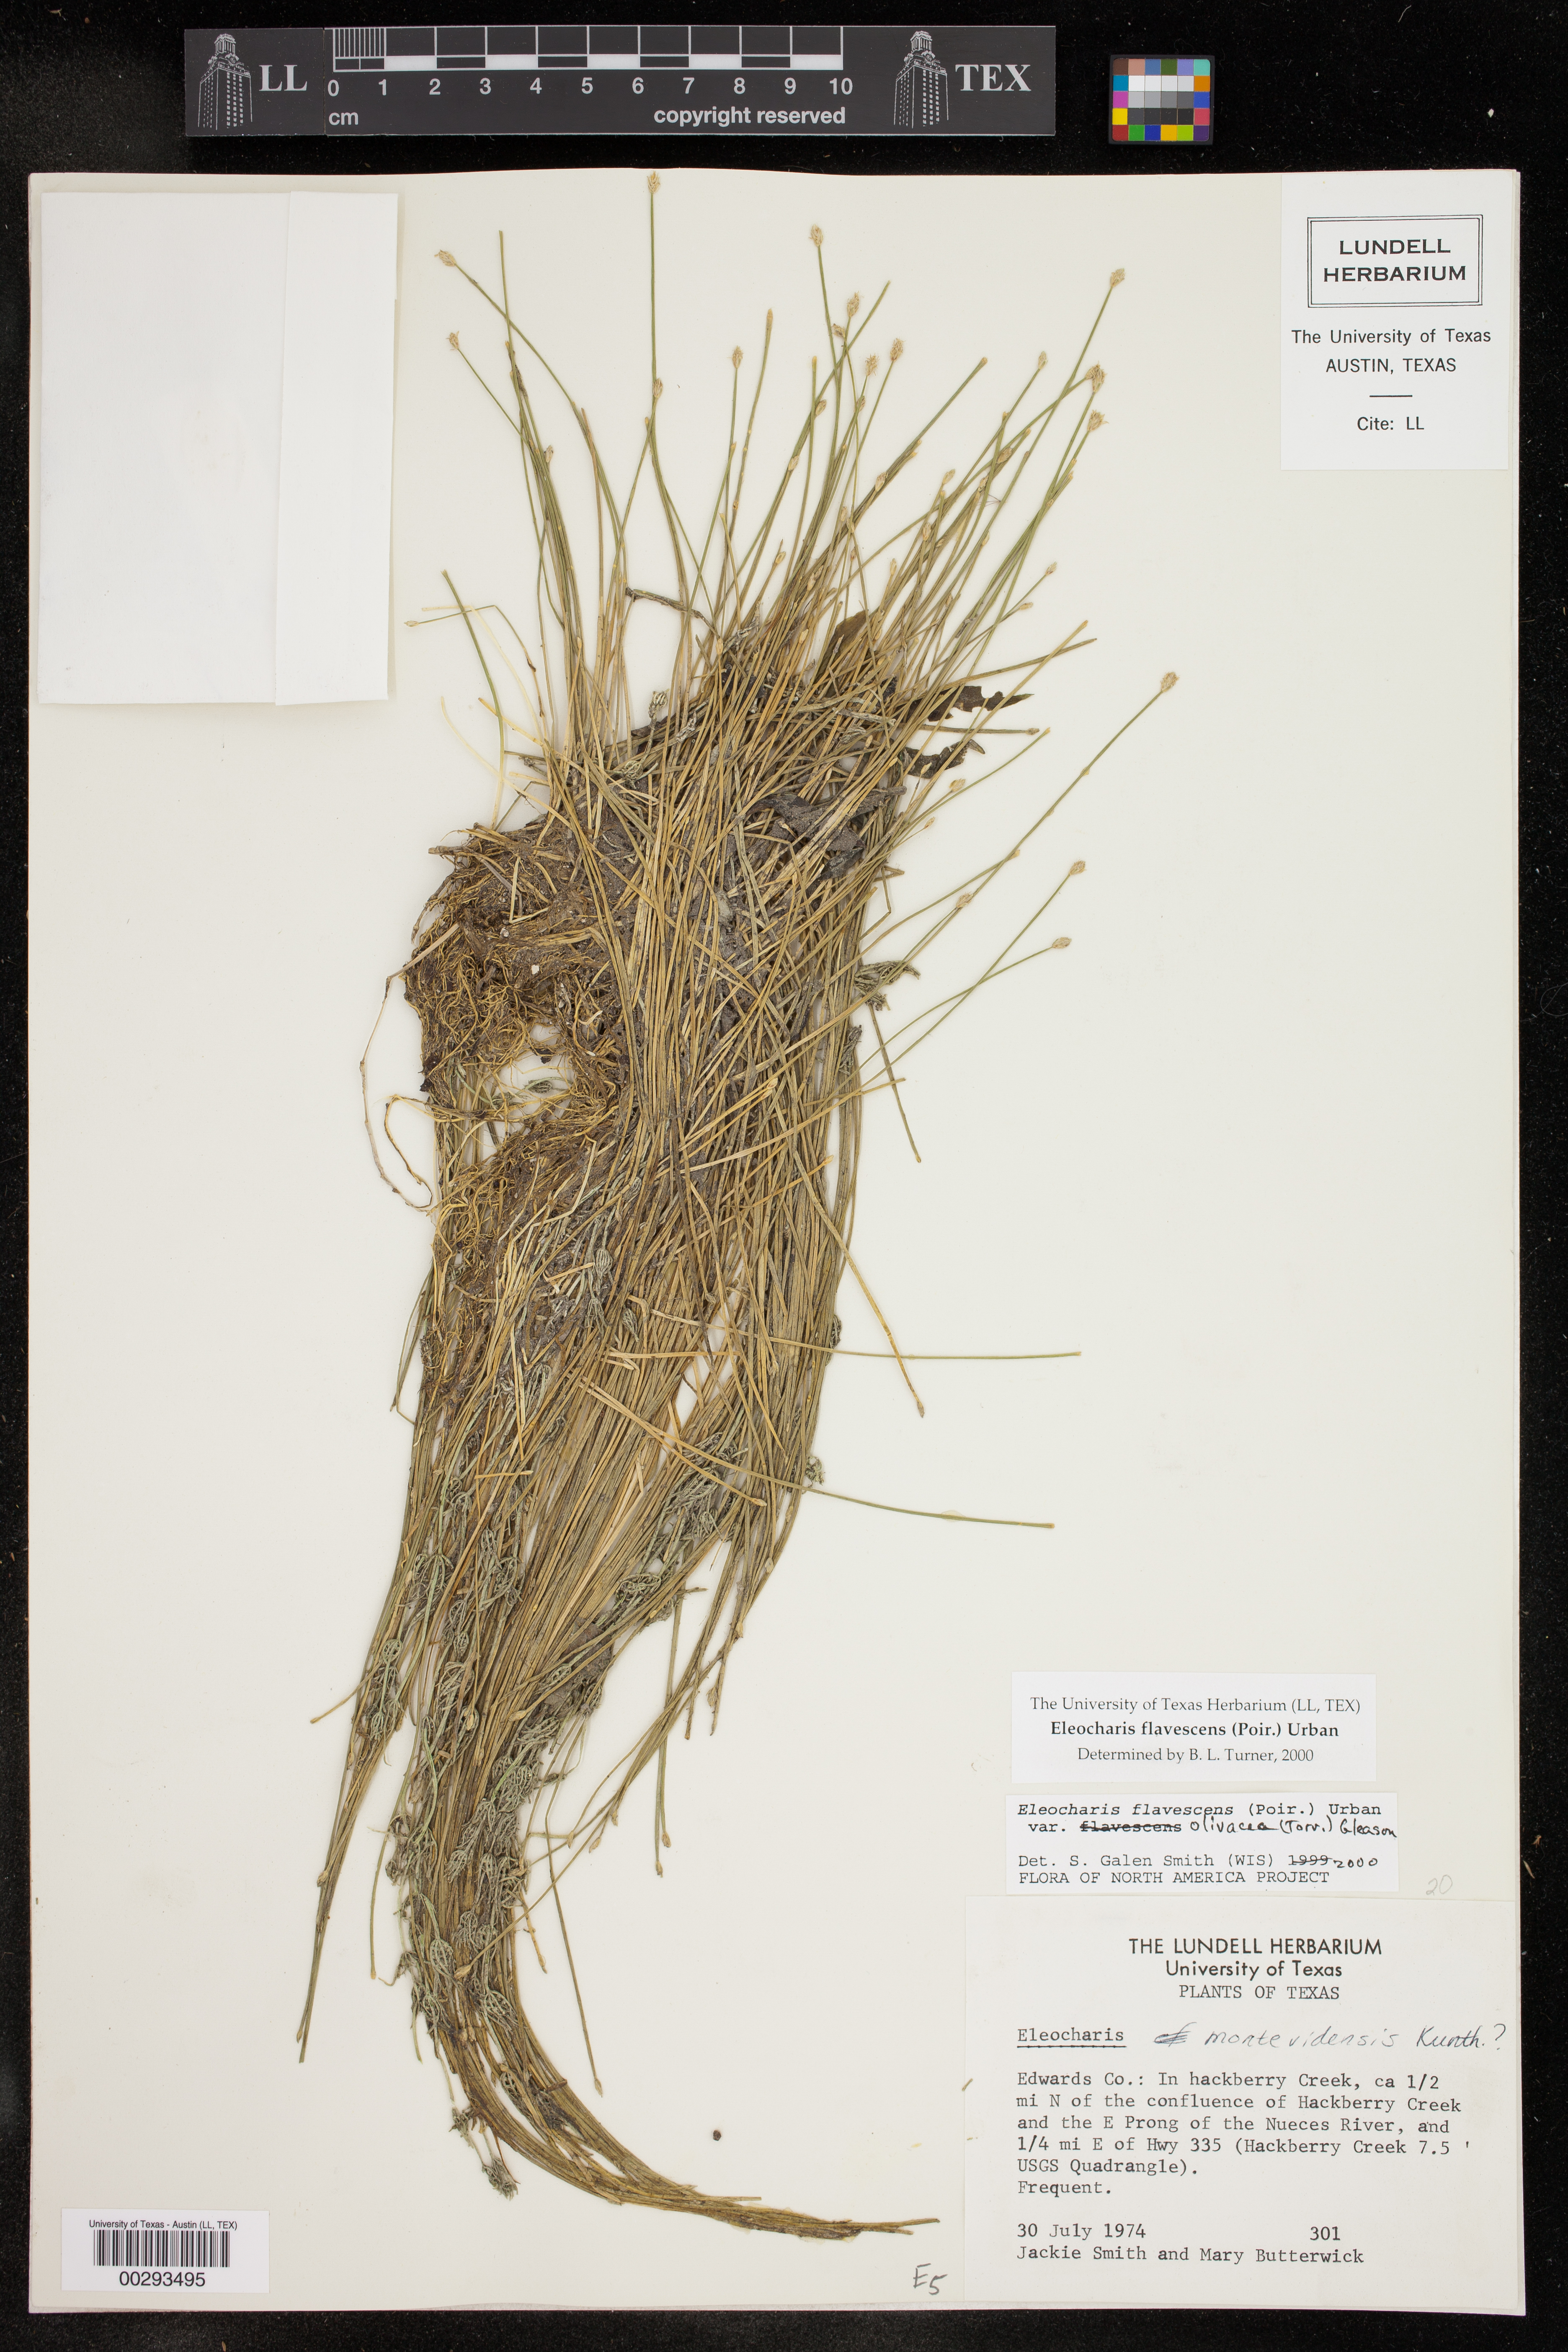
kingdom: Plantae
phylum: Tracheophyta
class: Liliopsida
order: Poales
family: Cyperaceae
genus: Eleocharis
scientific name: Eleocharis flavescens
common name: Yellow spikerush
